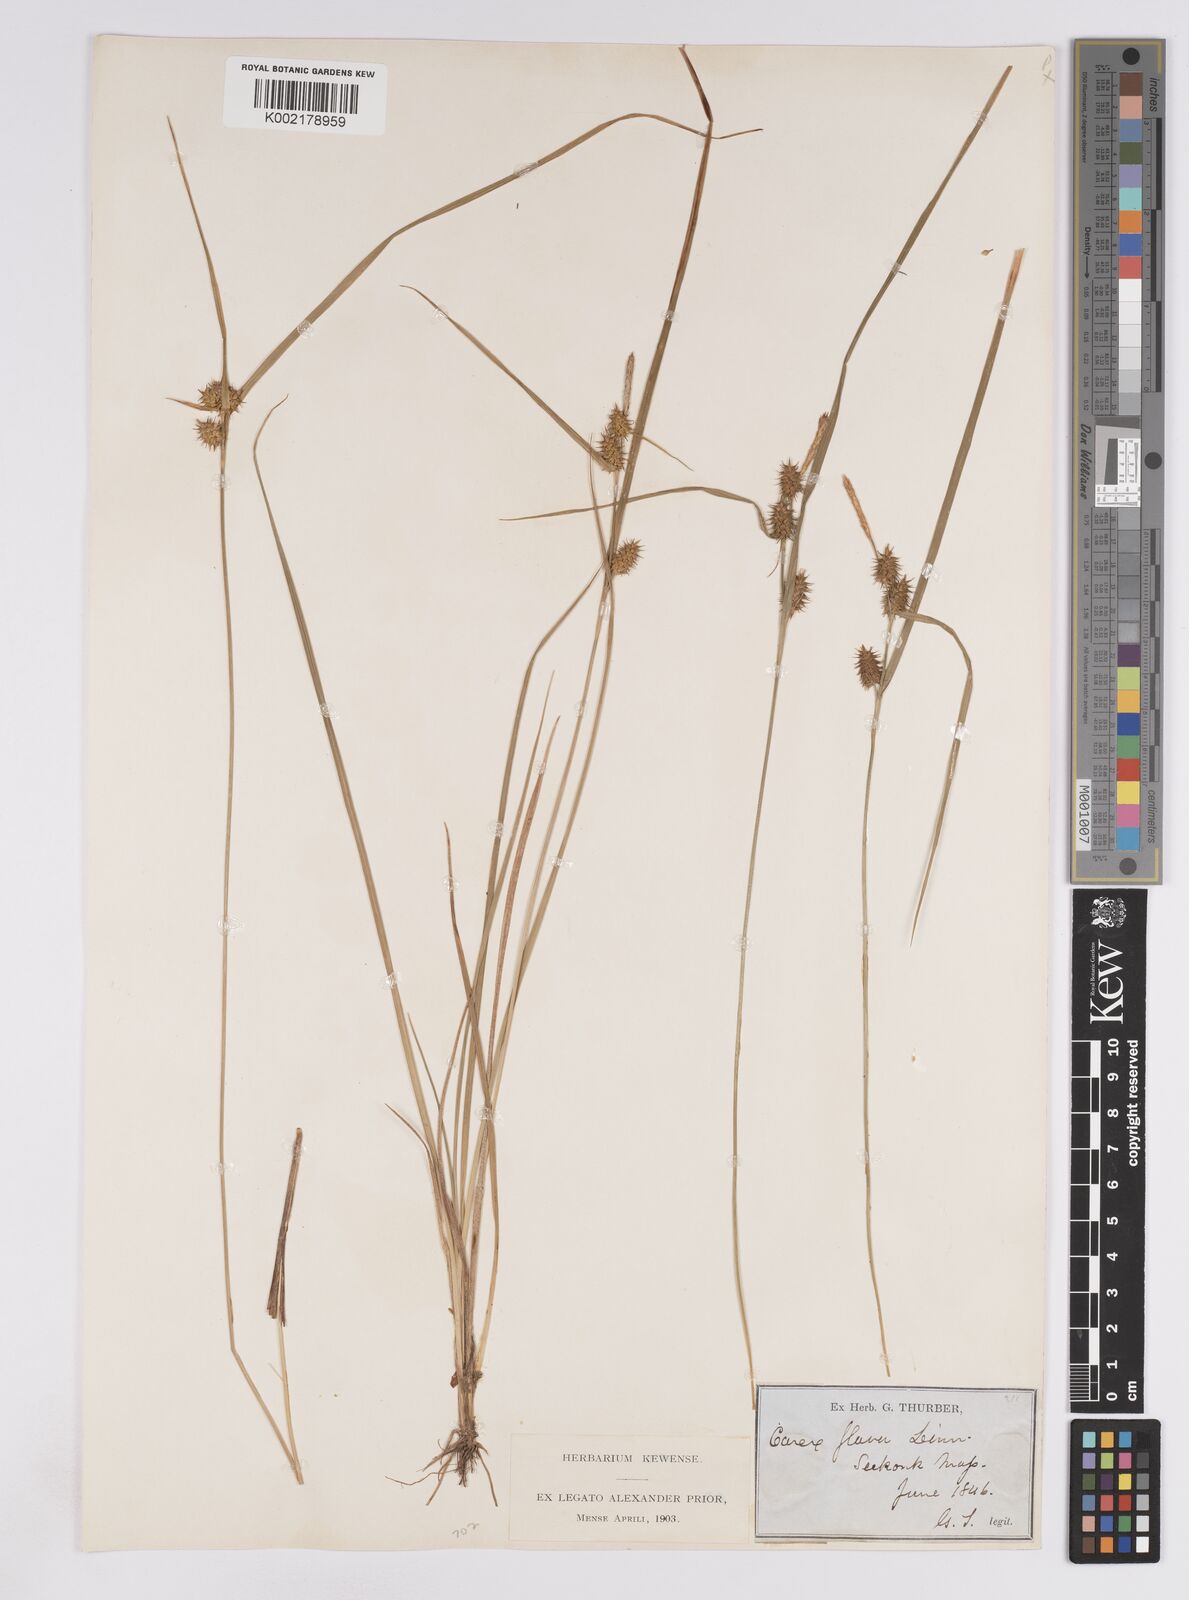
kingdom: Plantae
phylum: Tracheophyta
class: Liliopsida
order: Poales
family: Cyperaceae
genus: Carex
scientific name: Carex lepidocarpa
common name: Long-stalked yellow-sedge
